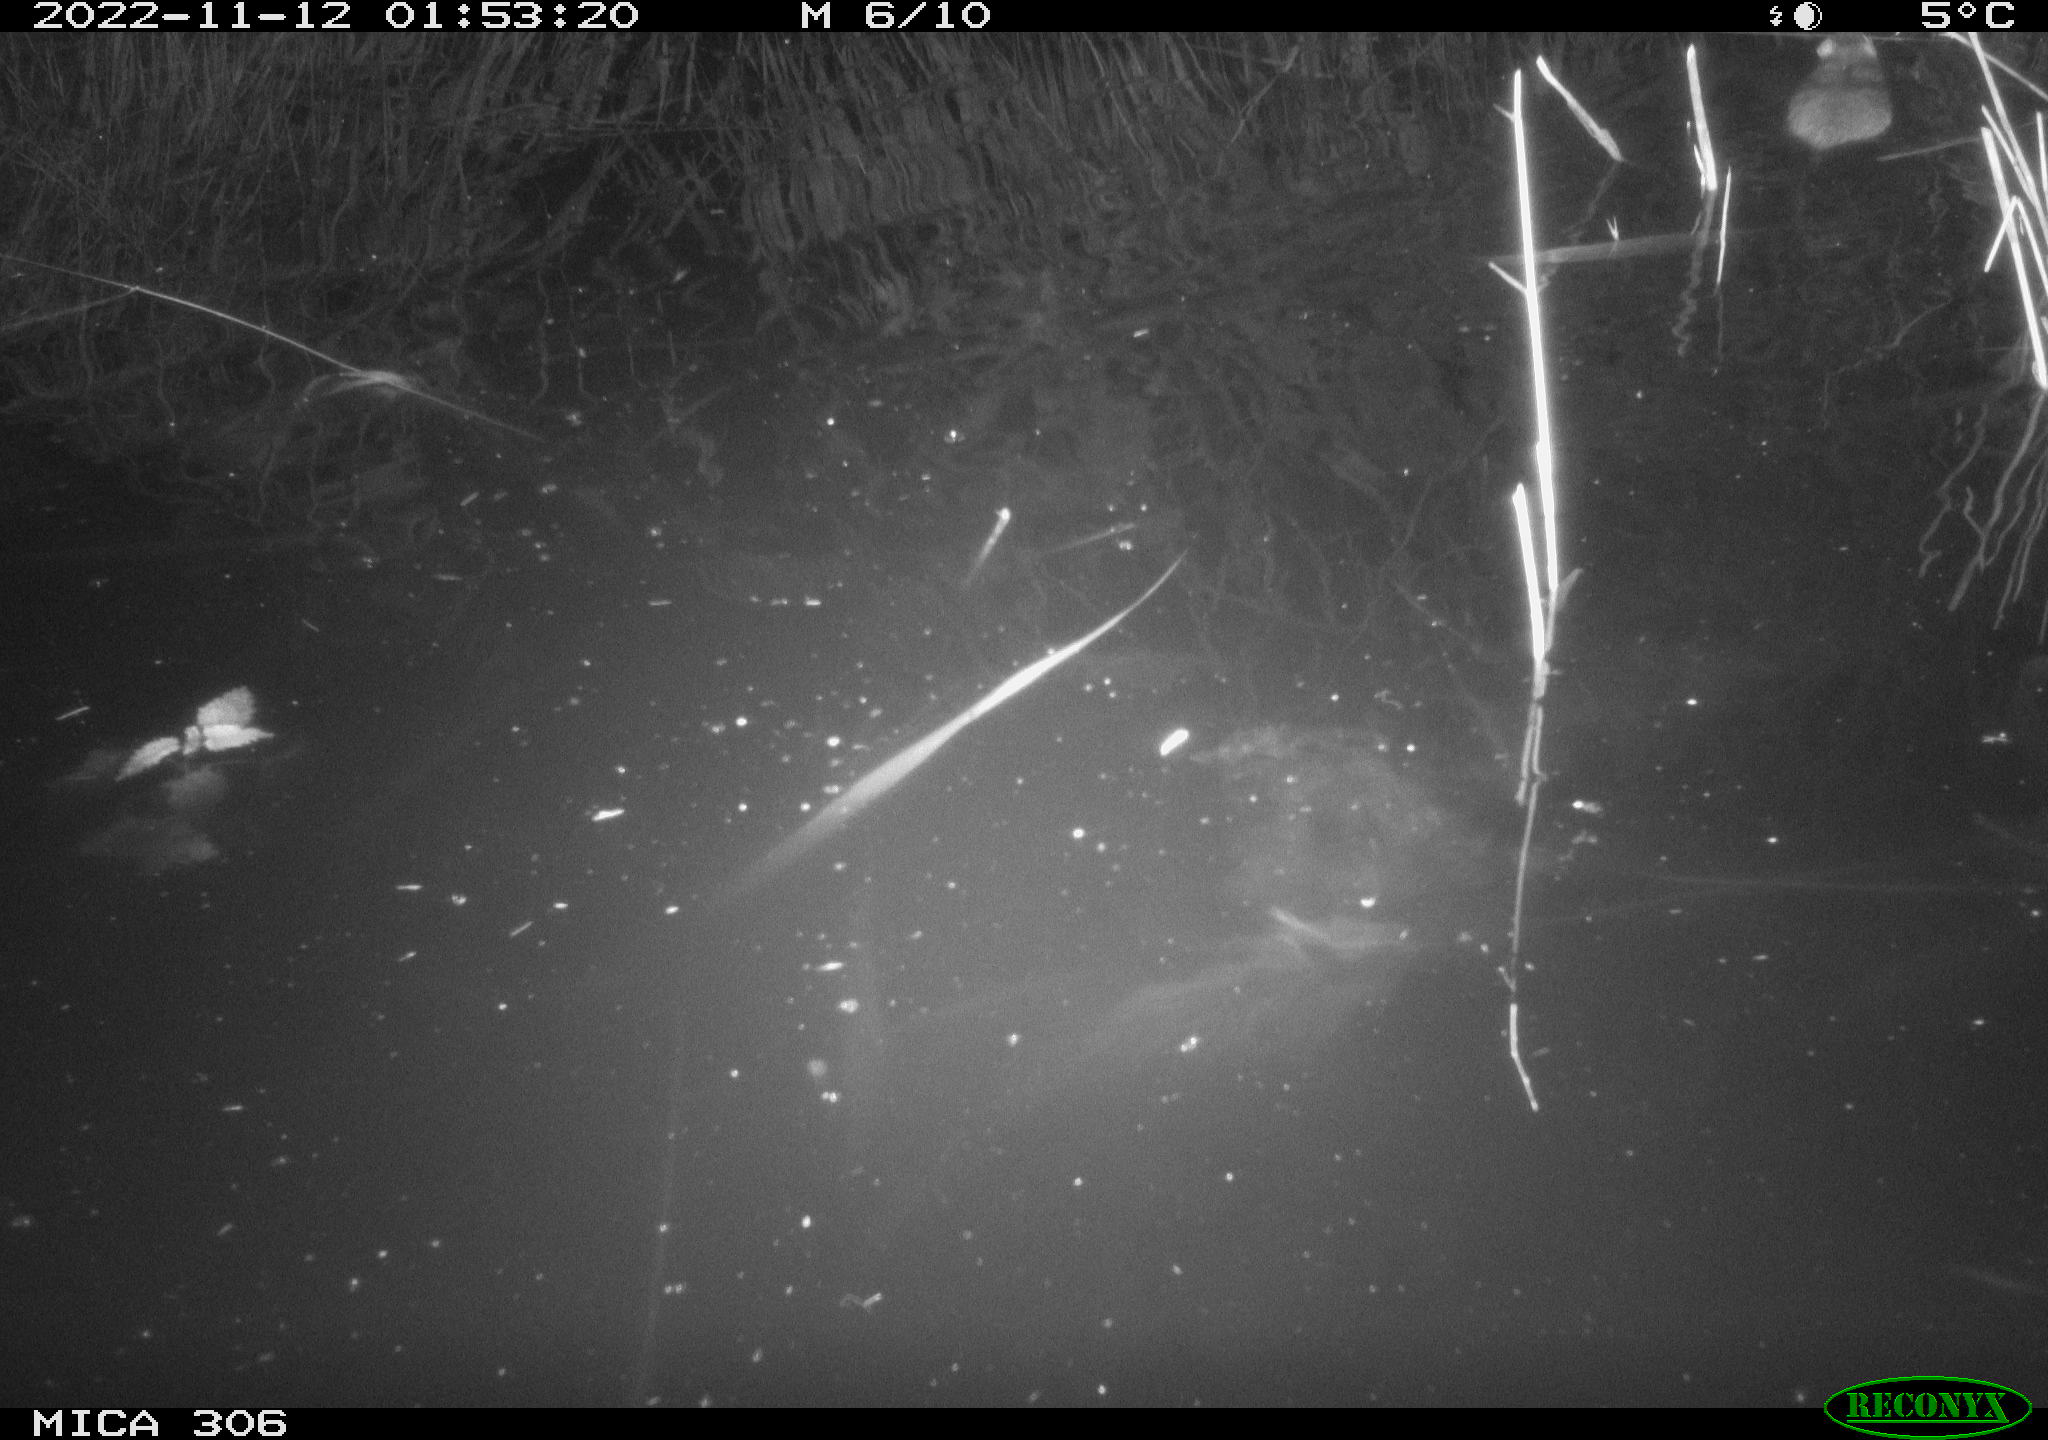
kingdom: Animalia
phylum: Chordata
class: Mammalia
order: Rodentia
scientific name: Rodentia
